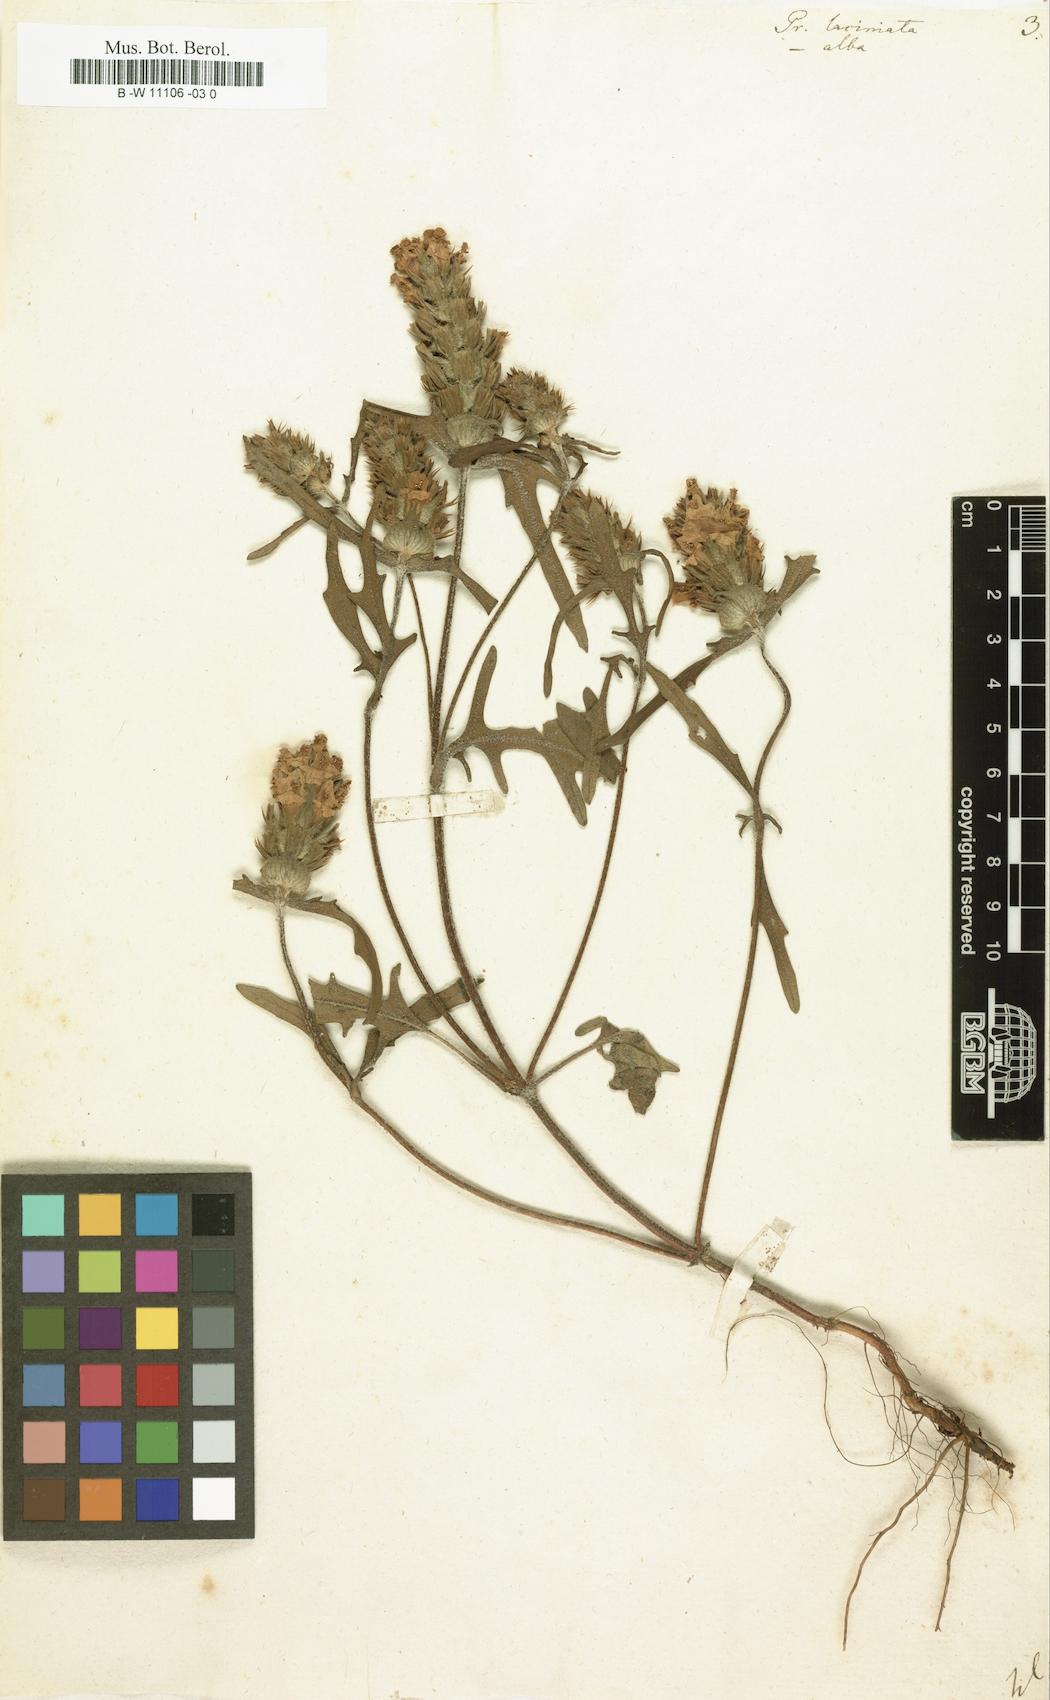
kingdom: Plantae
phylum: Tracheophyta
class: Magnoliopsida
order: Lamiales
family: Lamiaceae
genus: Prunella
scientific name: Prunella laciniata
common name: Cut-leaved selfheal
